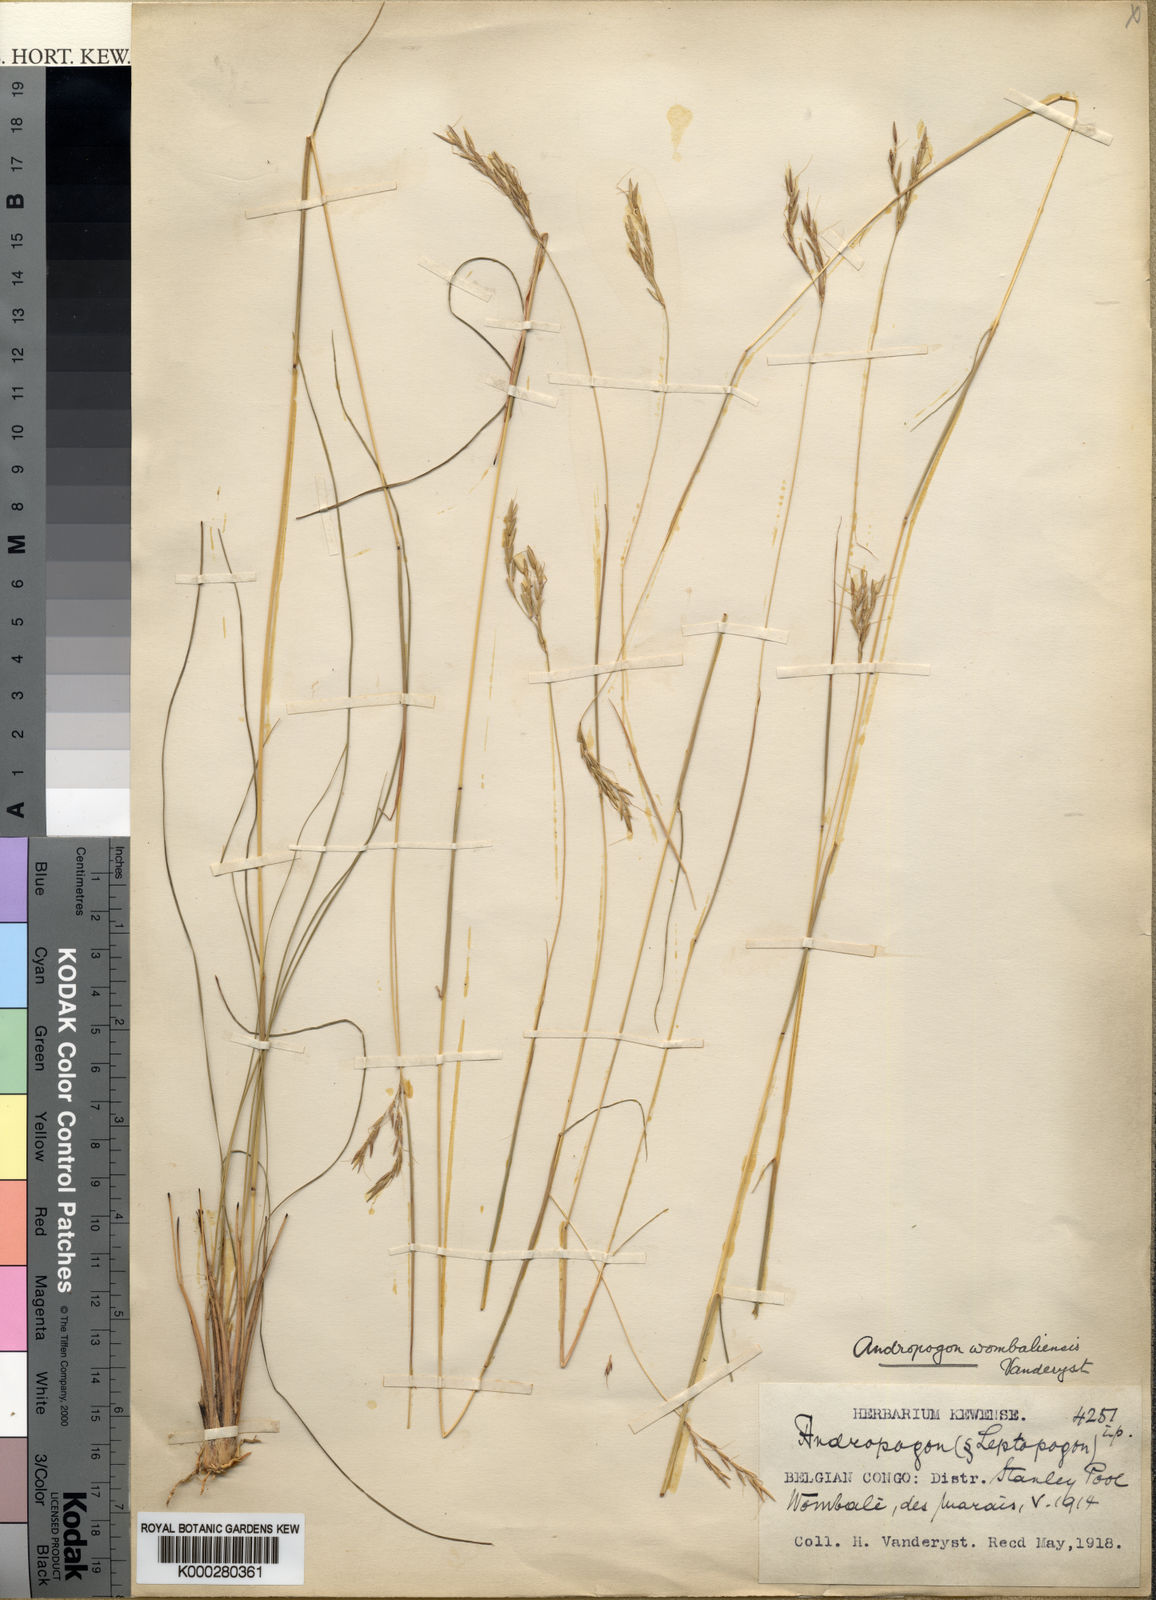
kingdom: Plantae
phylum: Tracheophyta
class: Liliopsida
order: Poales
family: Poaceae
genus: Hyparrhenia
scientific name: Hyparrhenia wombaliensis
